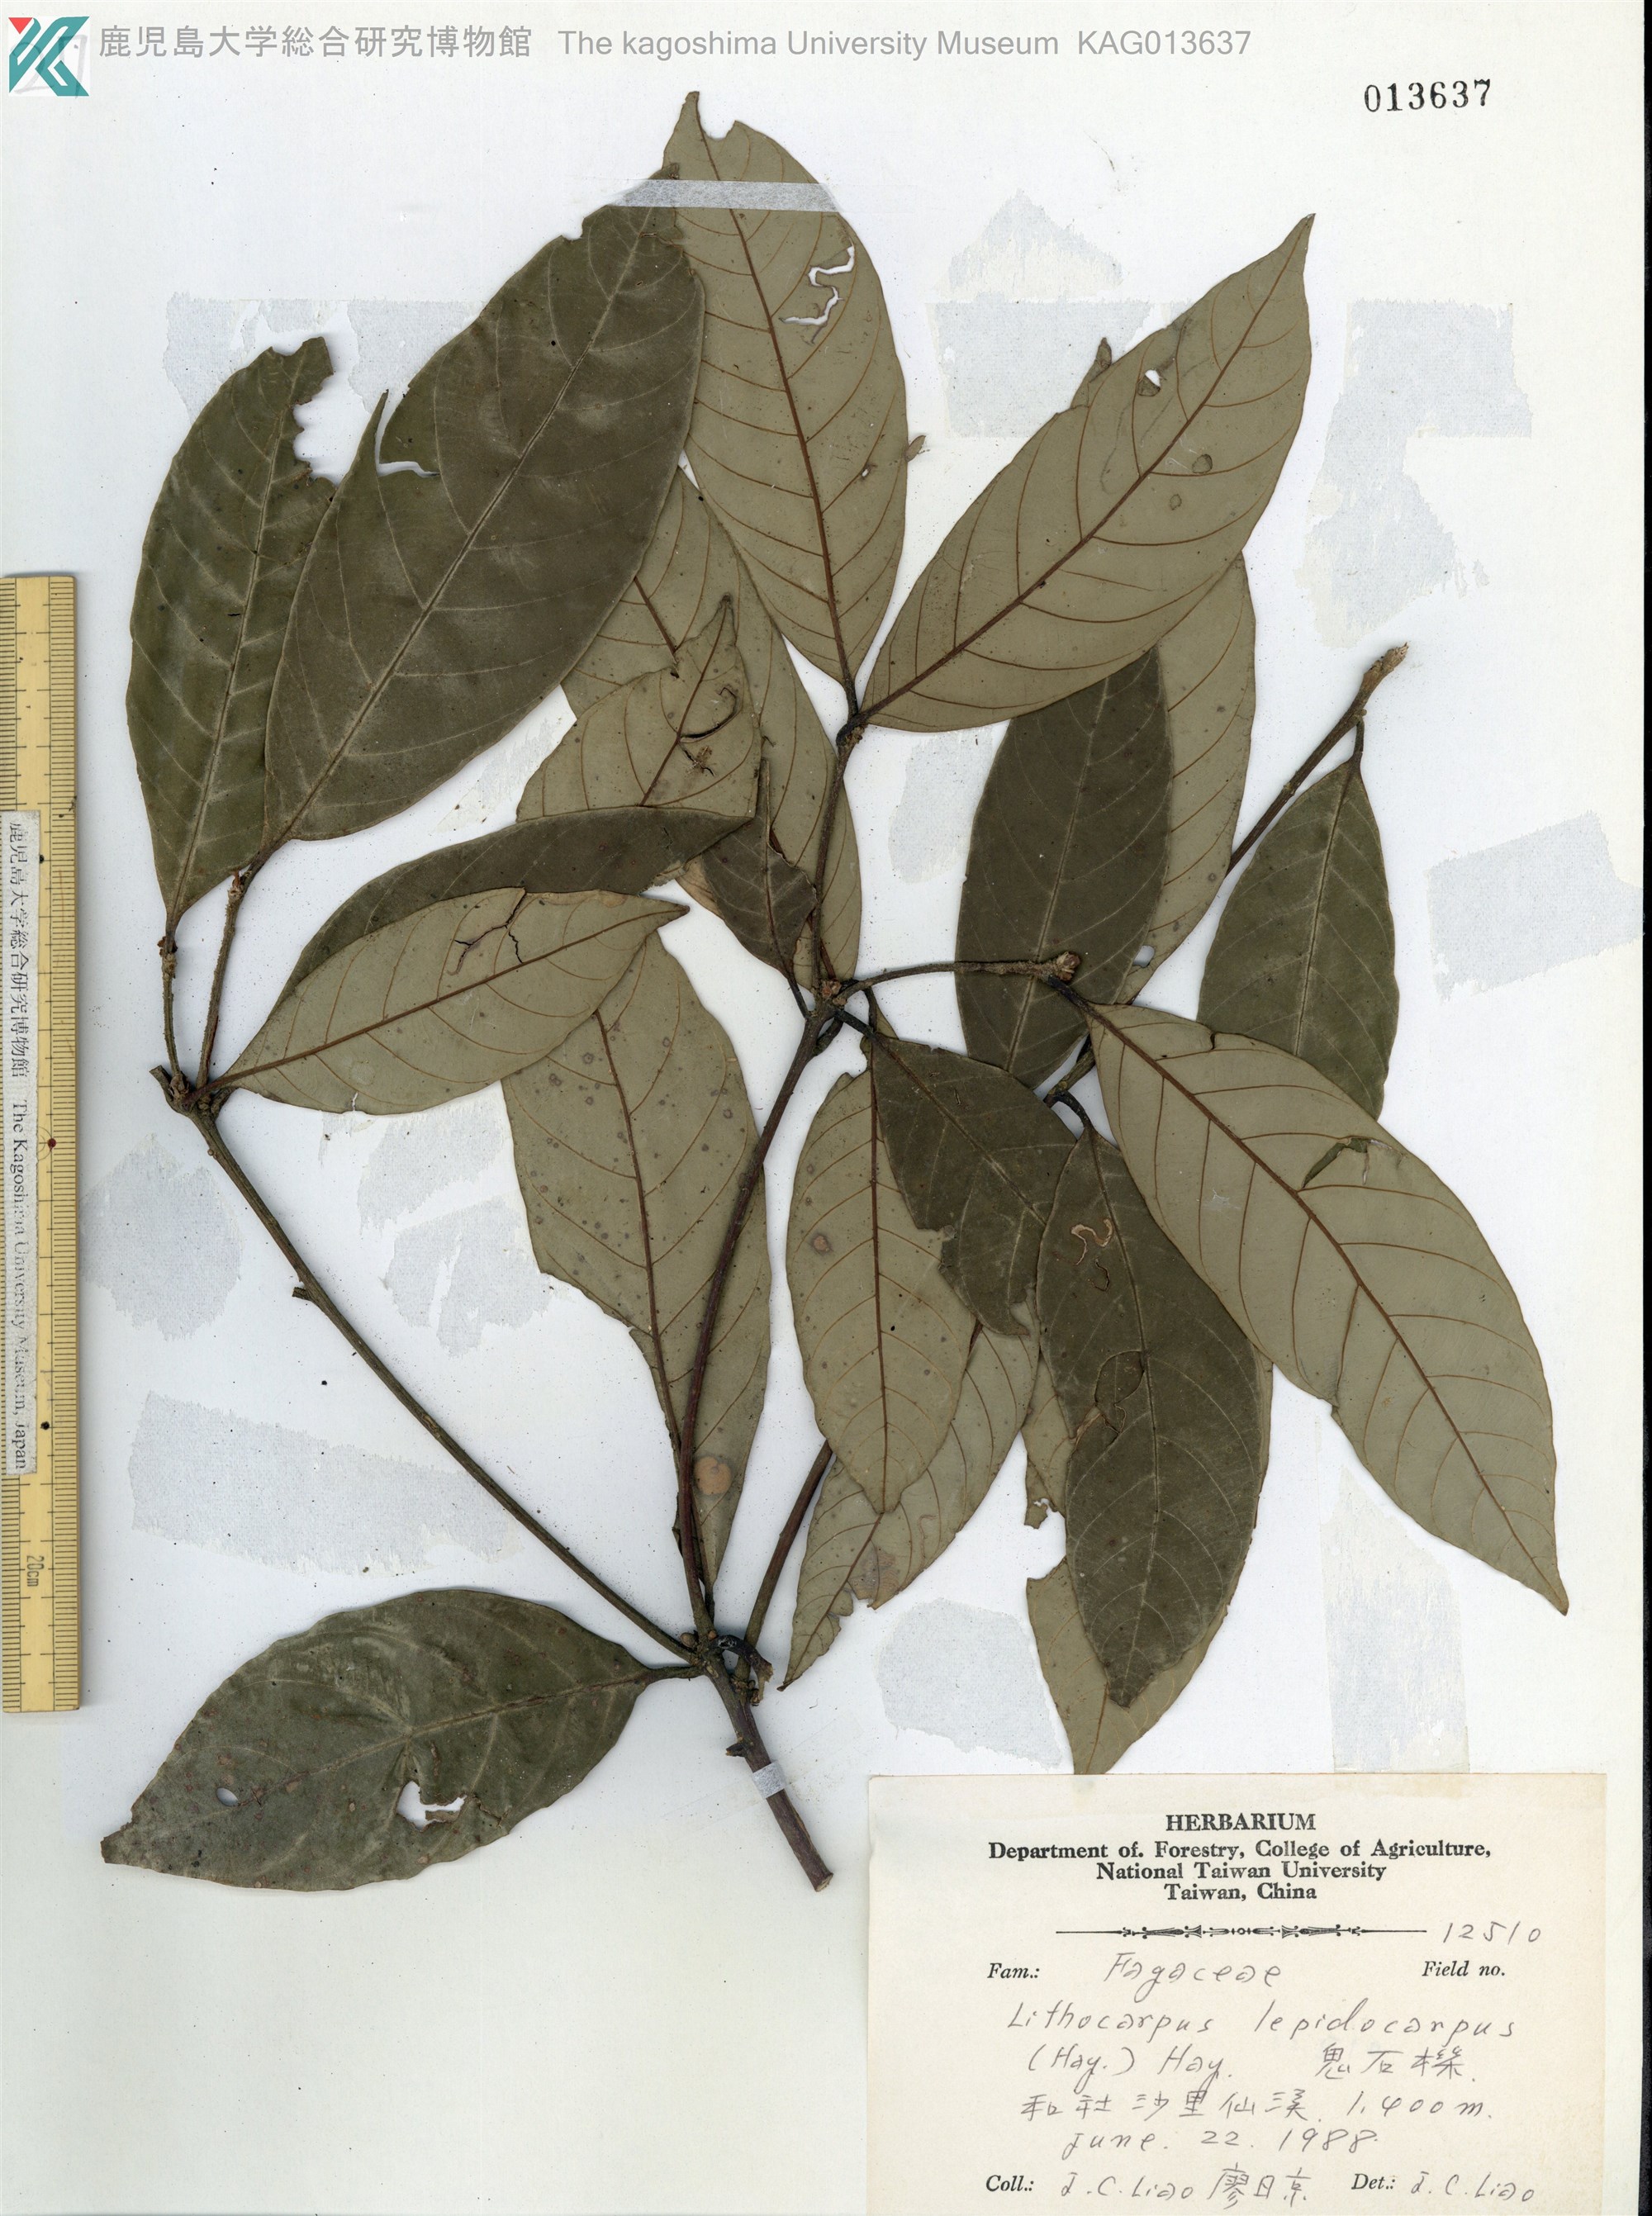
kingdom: Plantae
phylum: Tracheophyta
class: Magnoliopsida
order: Fagales
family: Fagaceae
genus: Lithocarpus
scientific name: Lithocarpus glaber
